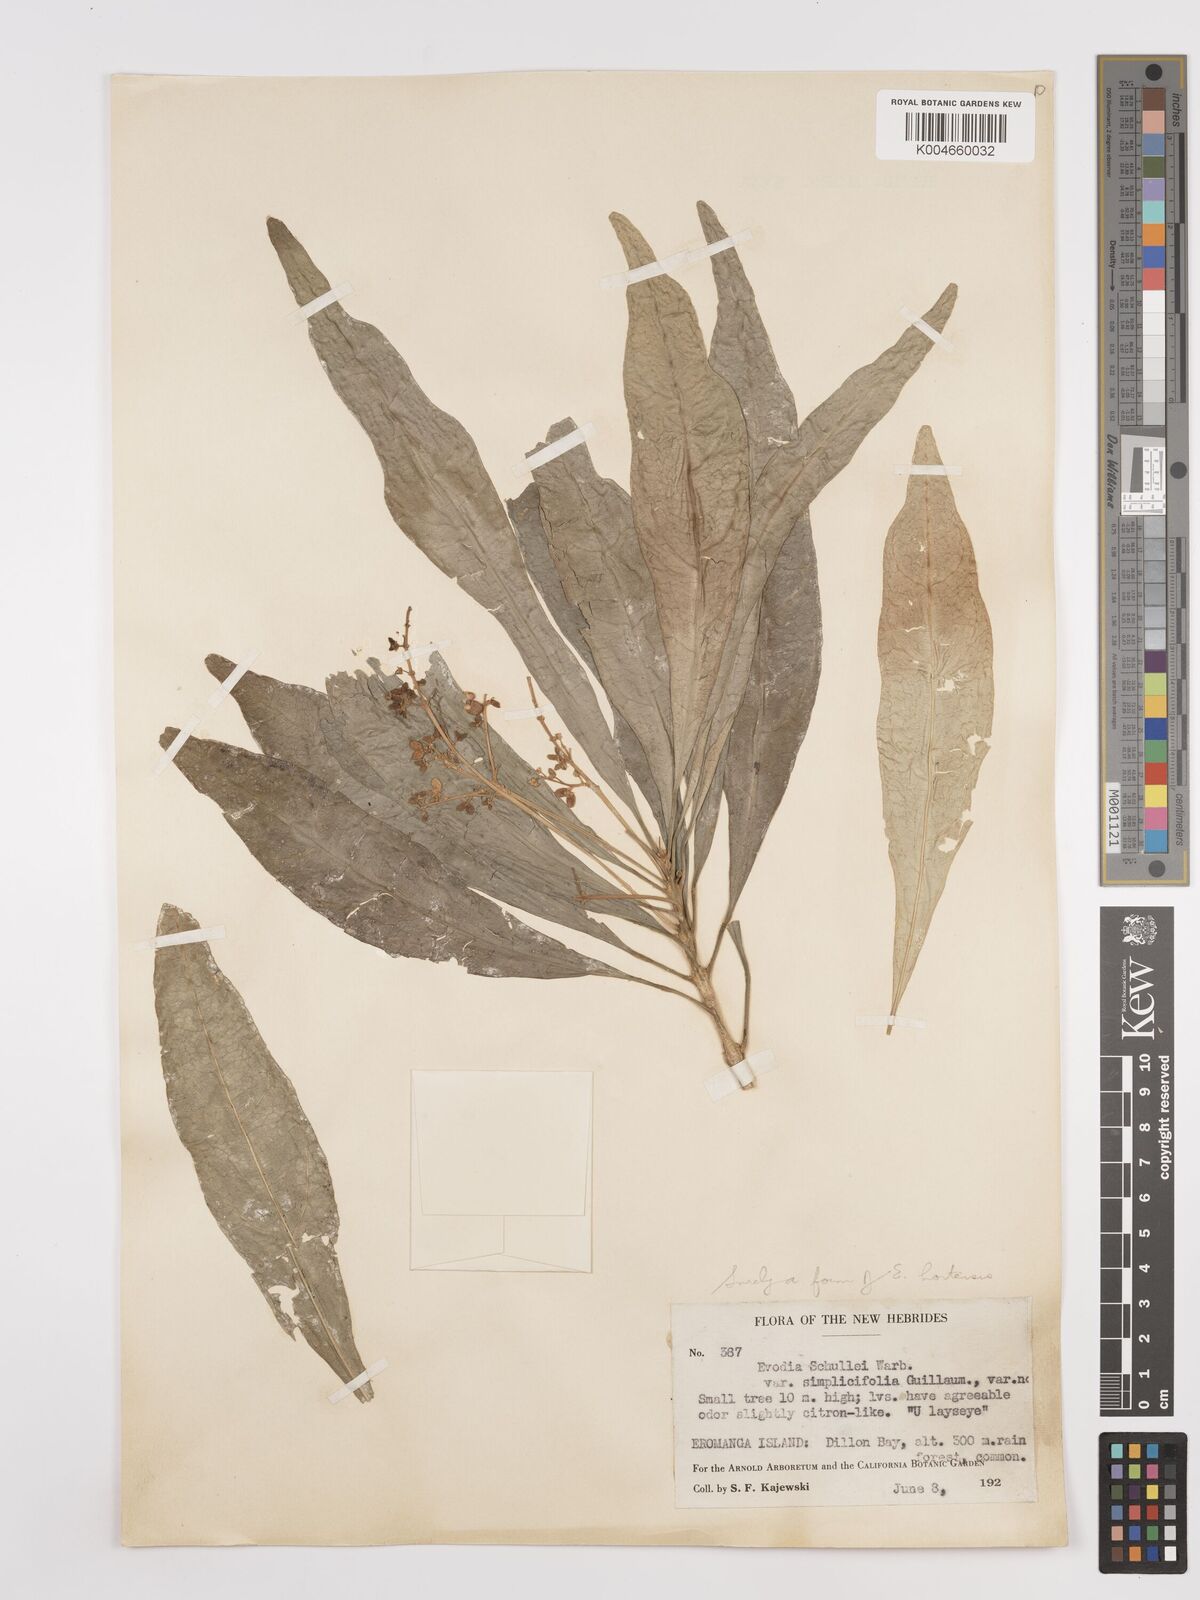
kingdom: Plantae
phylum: Tracheophyta
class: Magnoliopsida
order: Sapindales
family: Rutaceae
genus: Euodia
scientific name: Euodia hortensis
